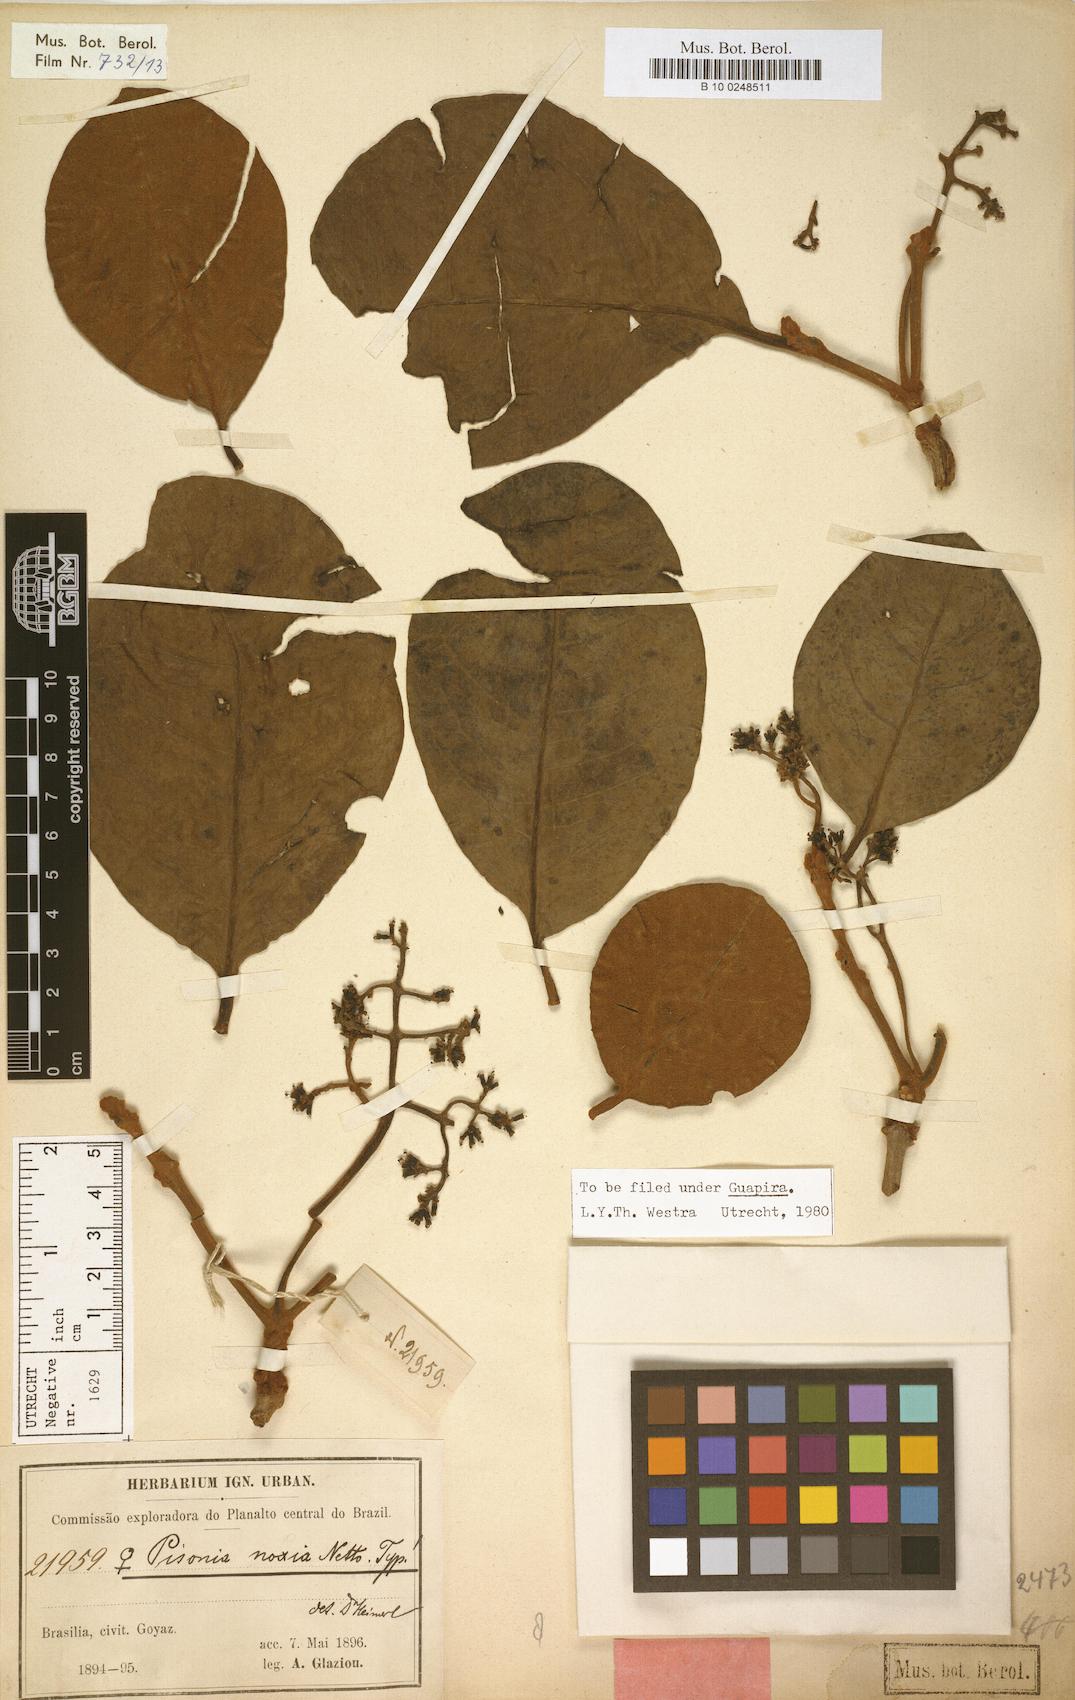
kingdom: Plantae
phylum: Tracheophyta
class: Magnoliopsida
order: Caryophyllales
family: Nyctaginaceae
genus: Guapira
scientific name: Guapira noxia
